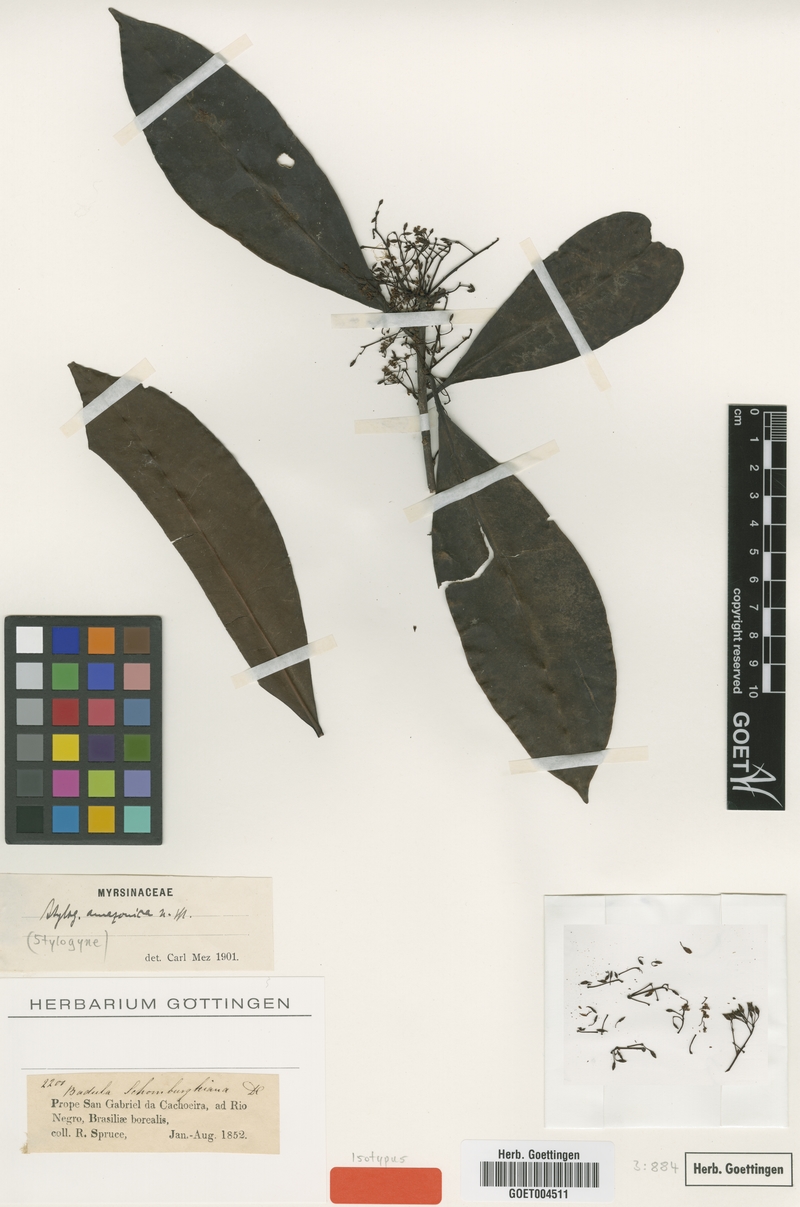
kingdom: Plantae
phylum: Tracheophyta
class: Magnoliopsida
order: Ericales
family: Primulaceae
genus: Stylogyne
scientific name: Stylogyne orinocensis
